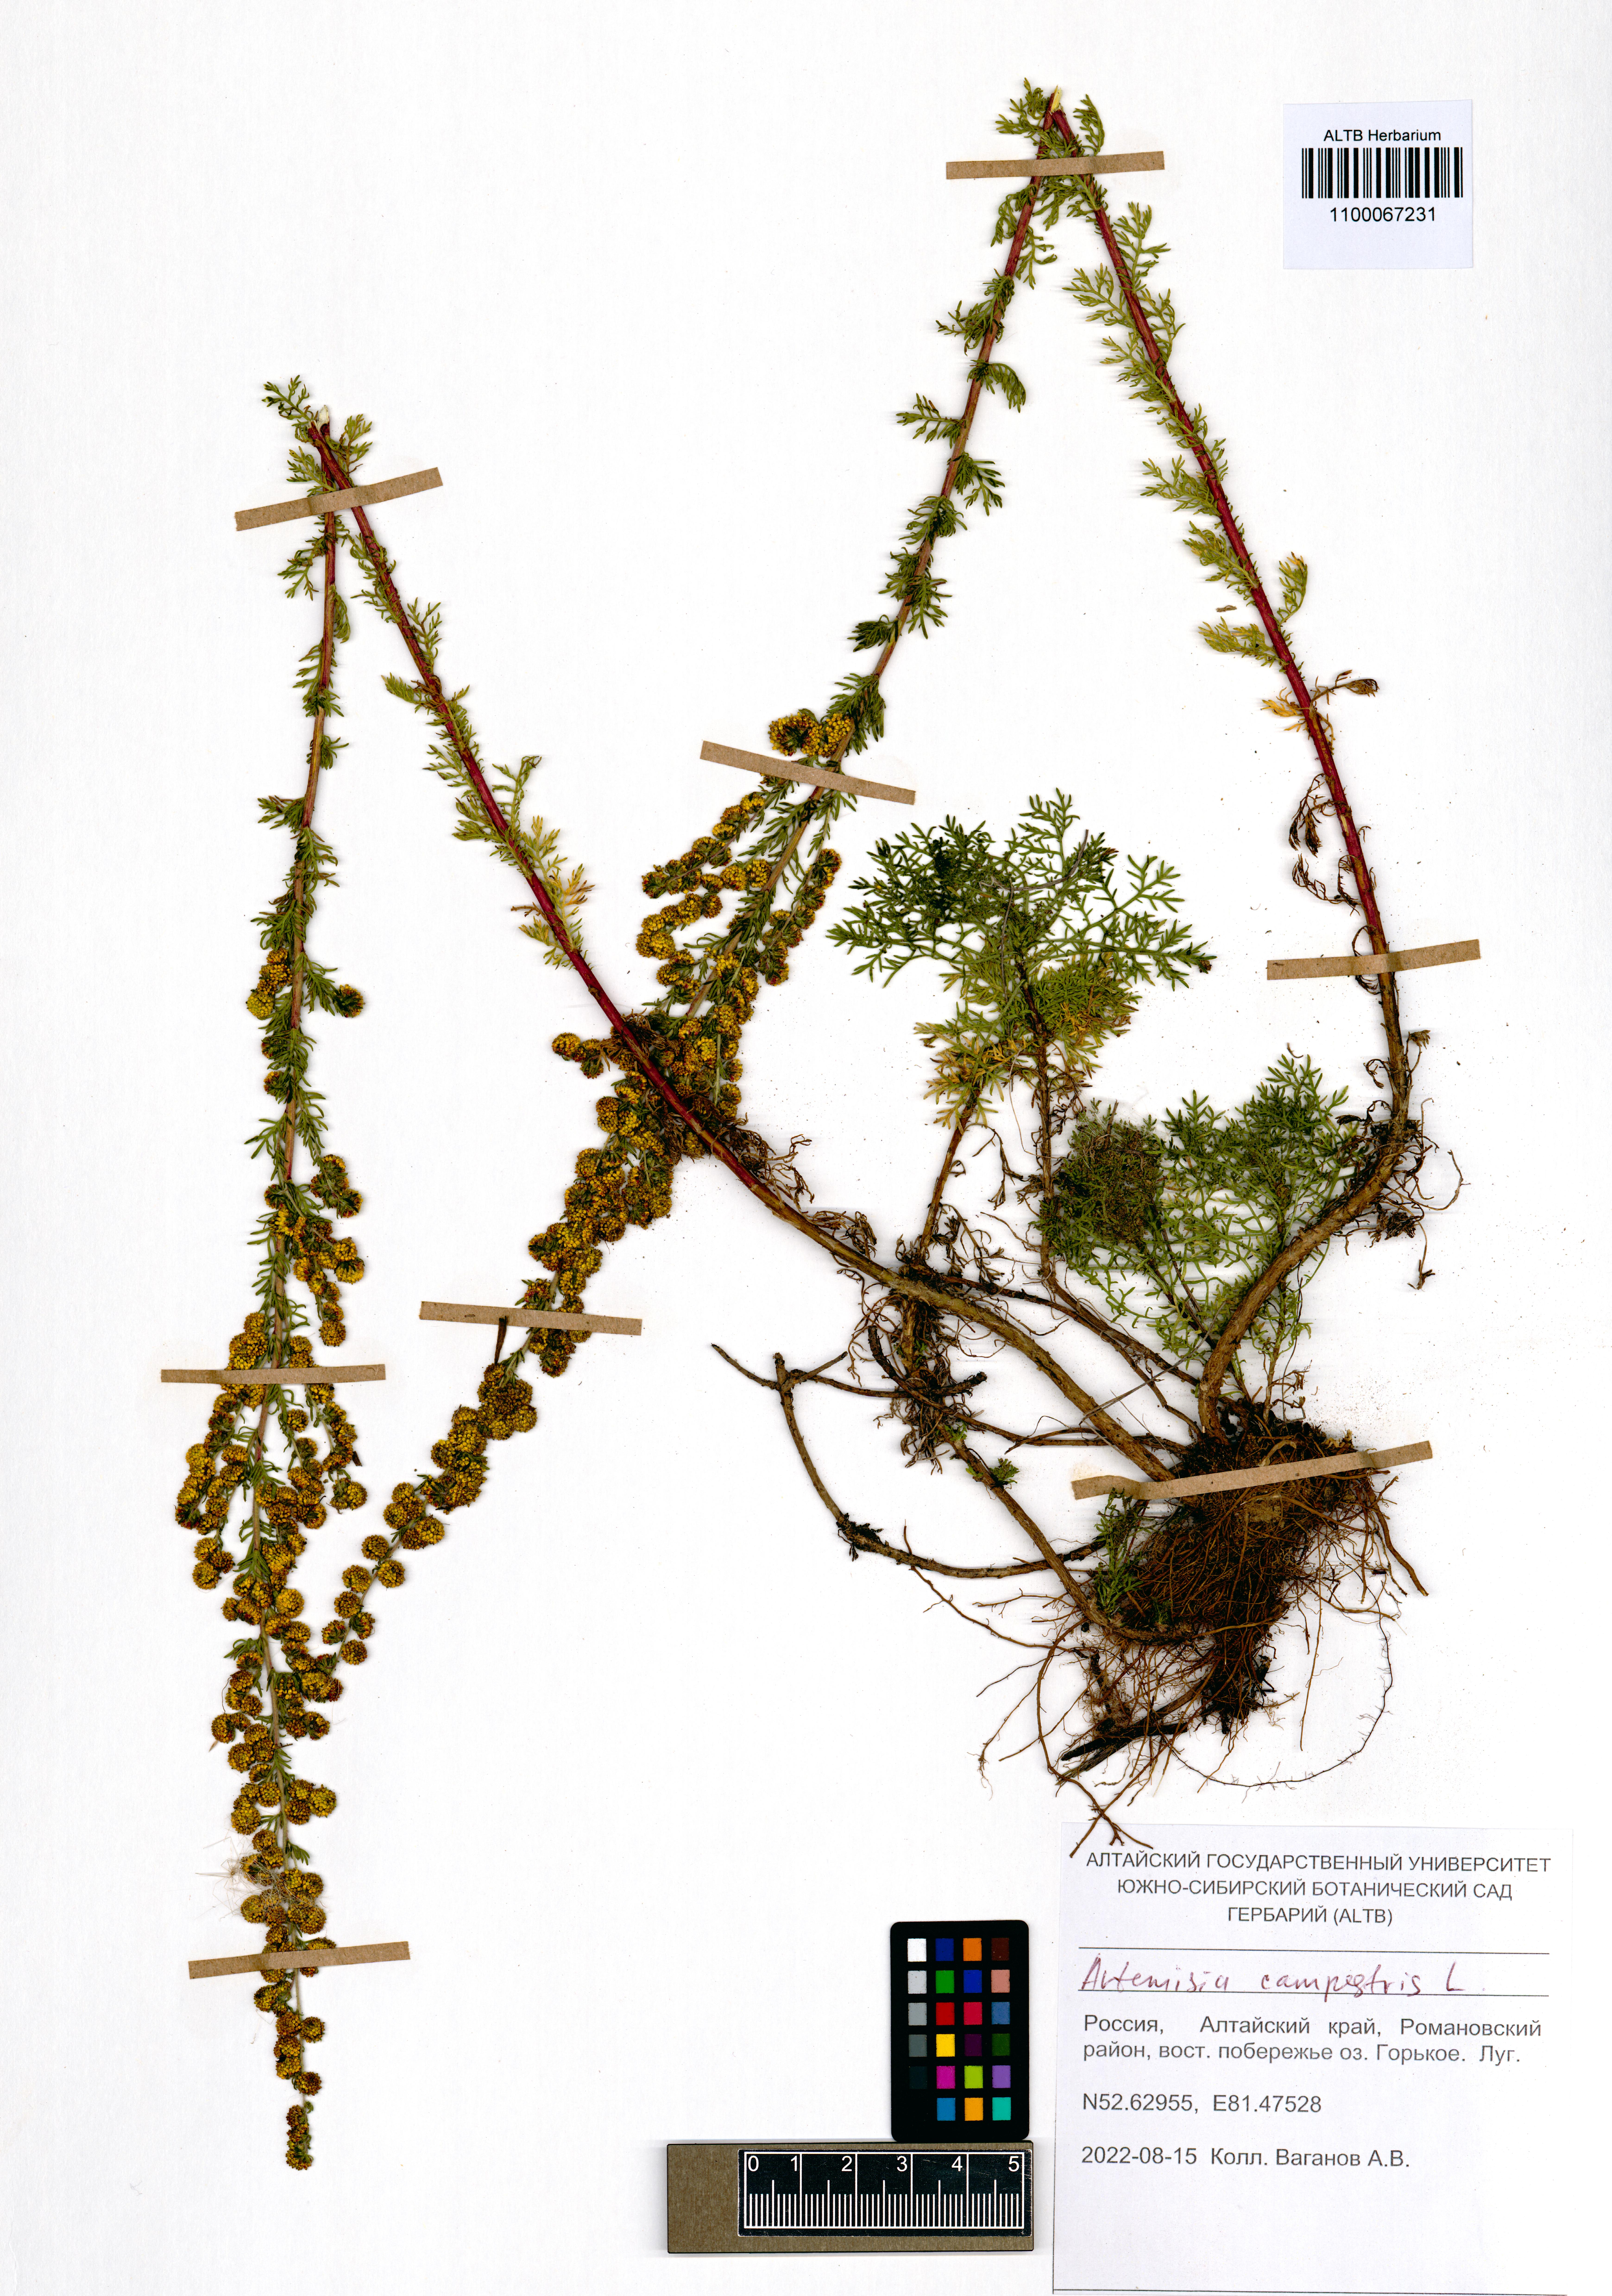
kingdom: Plantae
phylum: Tracheophyta
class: Magnoliopsida
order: Asterales
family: Asteraceae
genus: Artemisia
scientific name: Artemisia campestris
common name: Field wormwood
